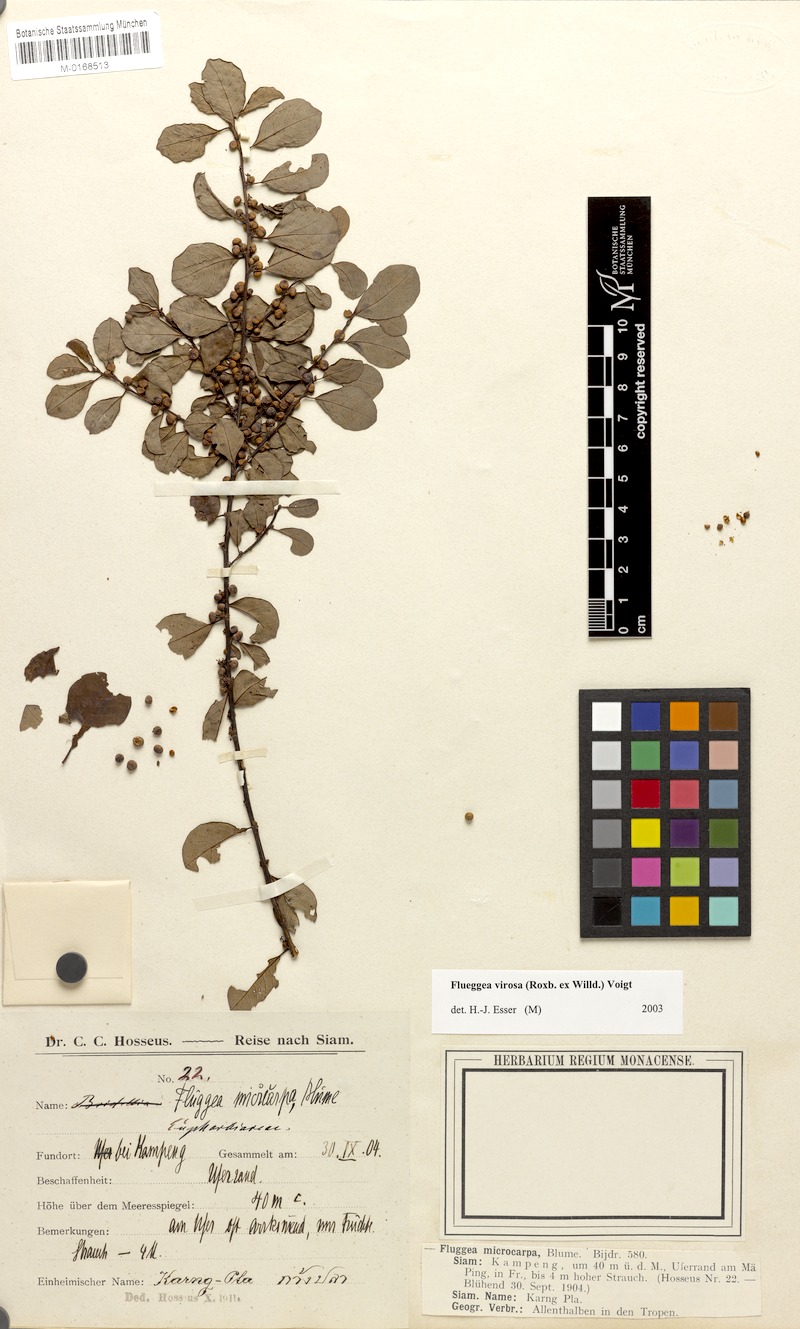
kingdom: Plantae
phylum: Tracheophyta
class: Magnoliopsida
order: Malpighiales
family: Phyllanthaceae
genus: Flueggea
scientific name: Flueggea virosa
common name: Common bushweed
